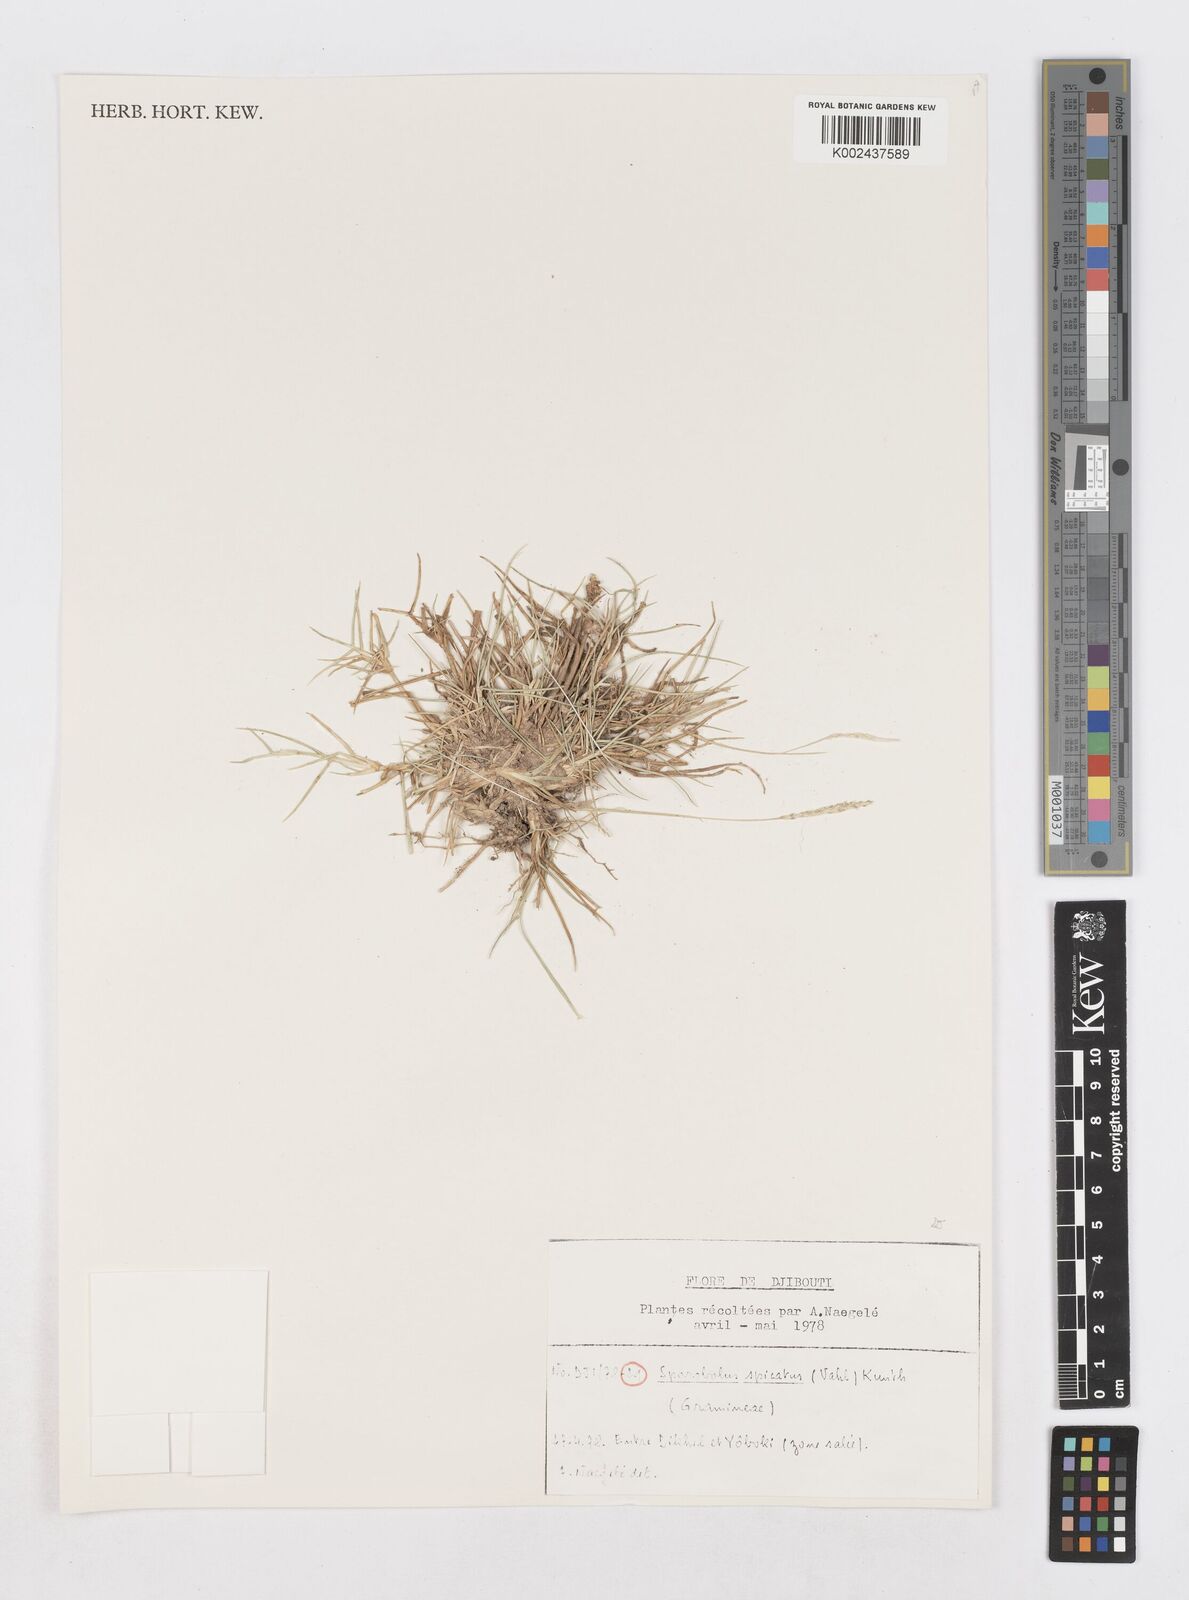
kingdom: Plantae
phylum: Tracheophyta
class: Liliopsida
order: Poales
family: Poaceae
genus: Sporobolus
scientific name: Sporobolus spicatus
